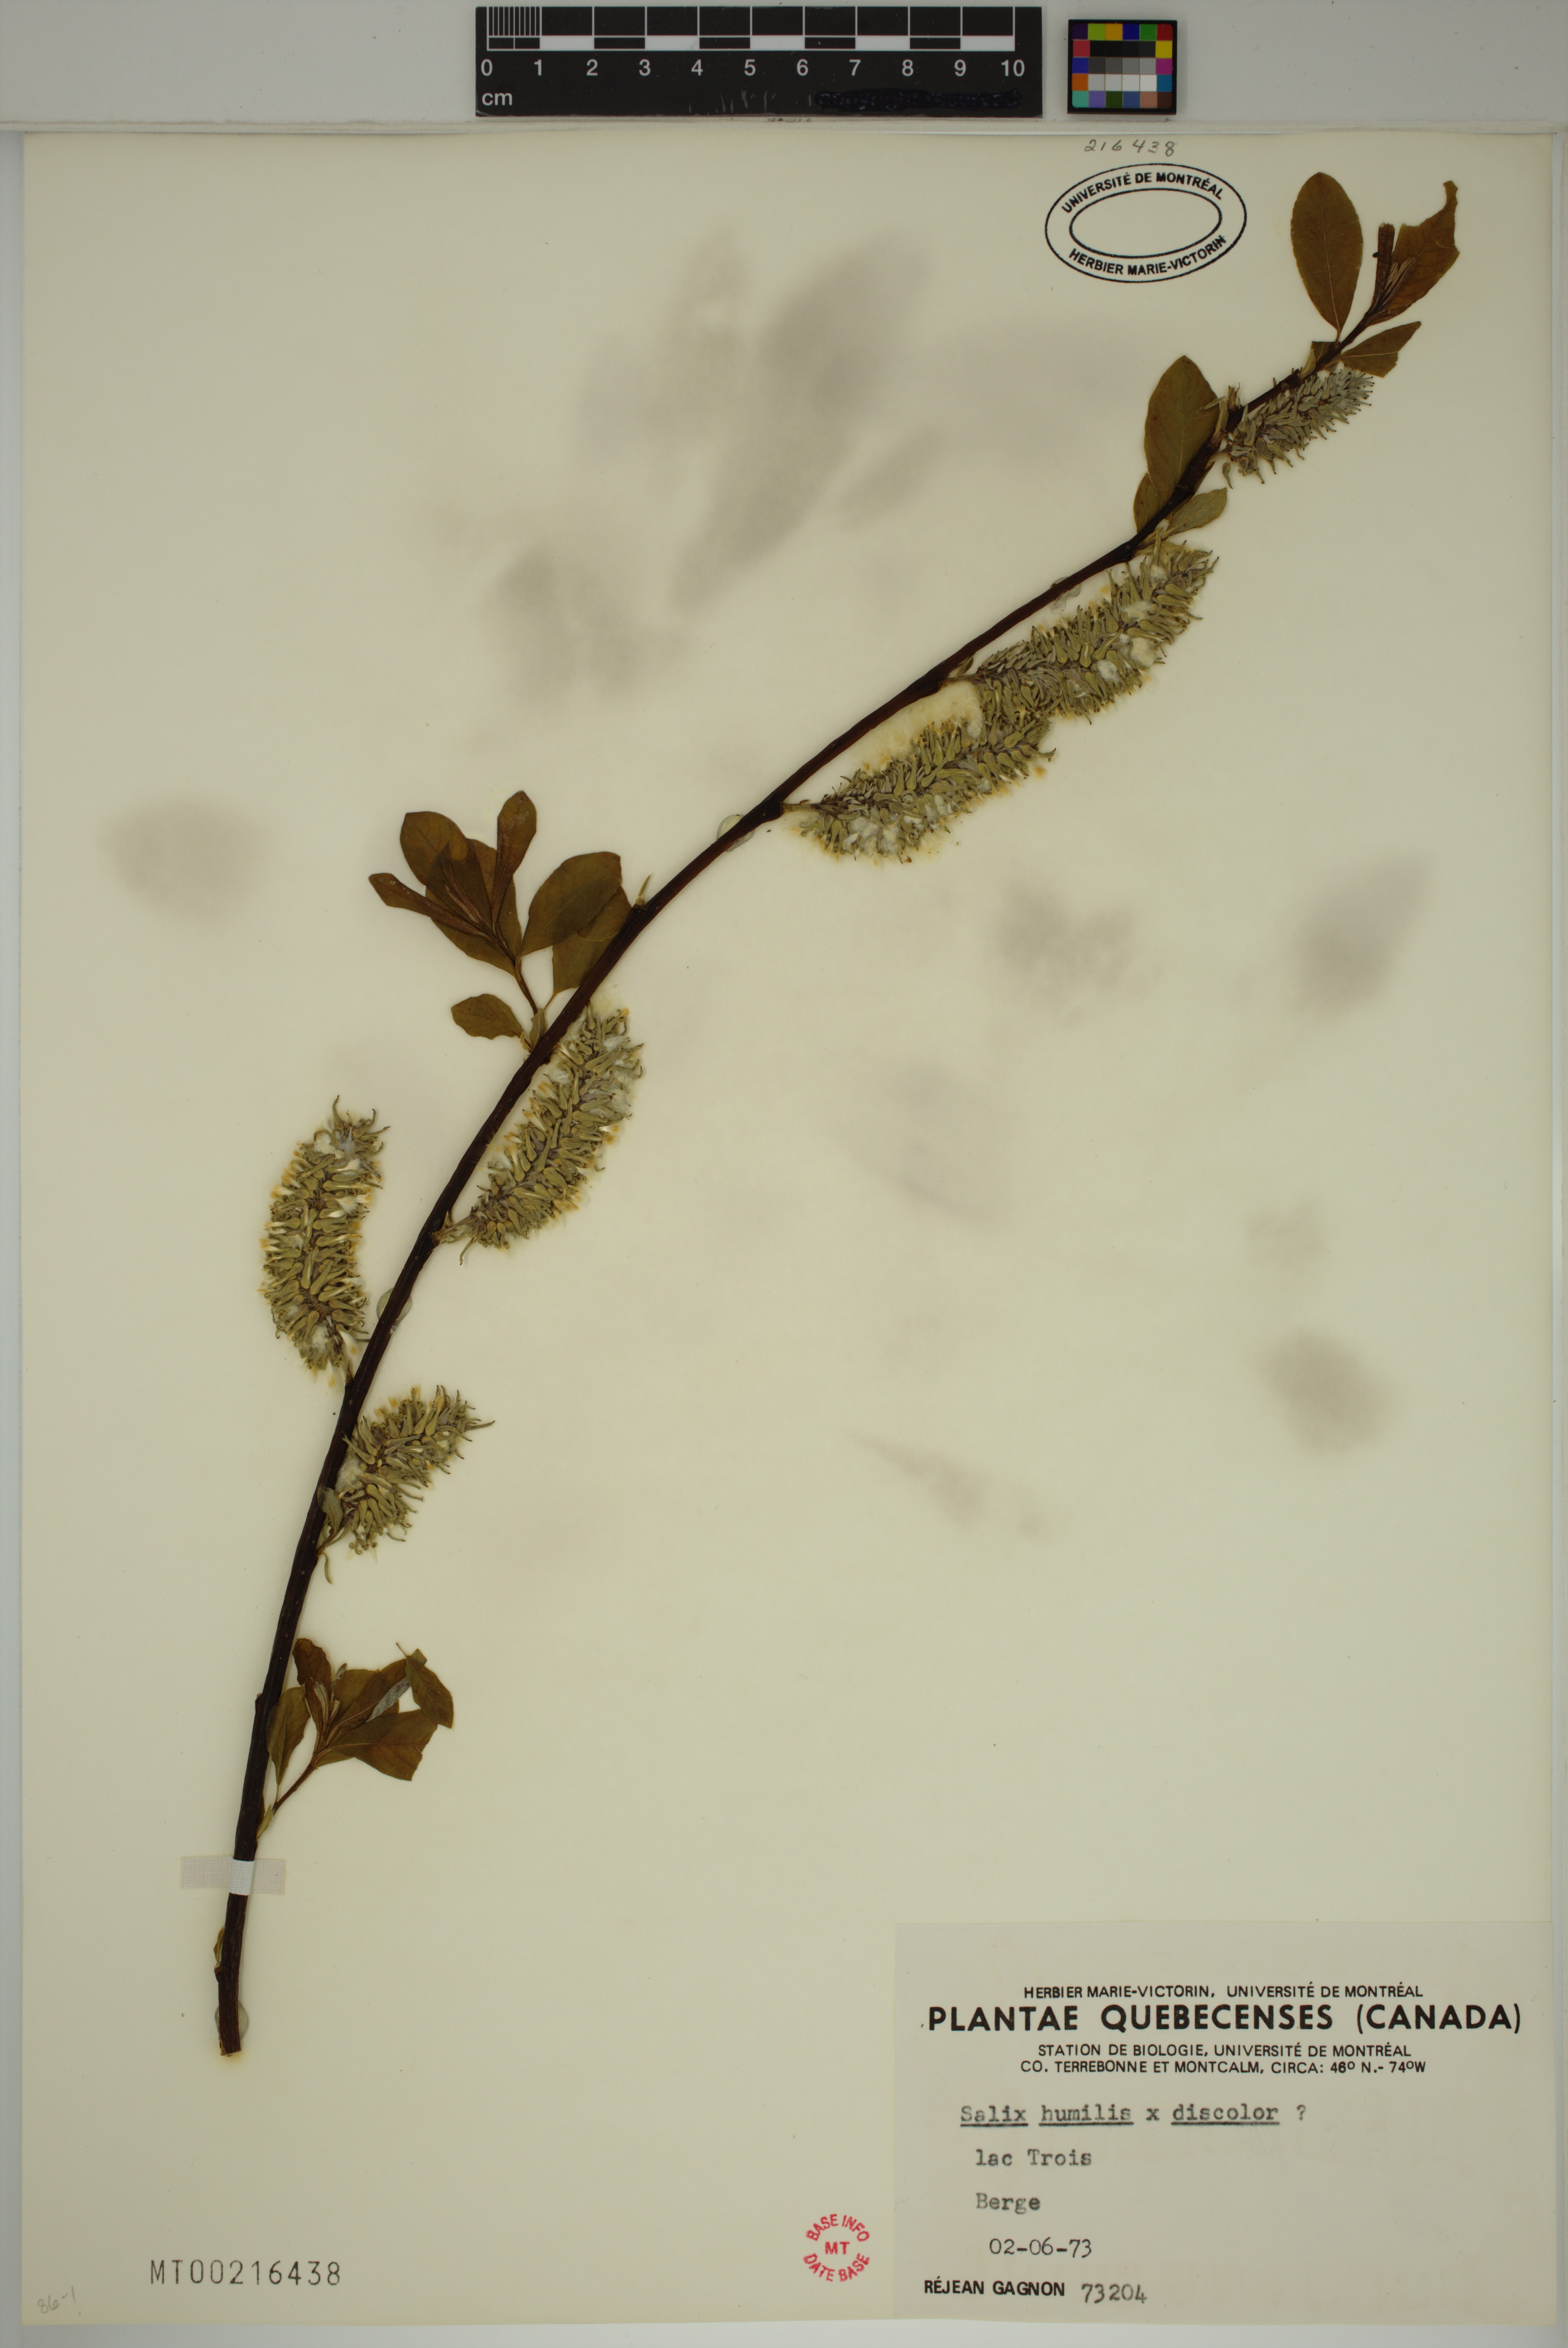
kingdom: Plantae
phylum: Tracheophyta
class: Magnoliopsida
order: Malpighiales
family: Salicaceae
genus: Salix
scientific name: Salix discolor
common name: Glaucous willow
